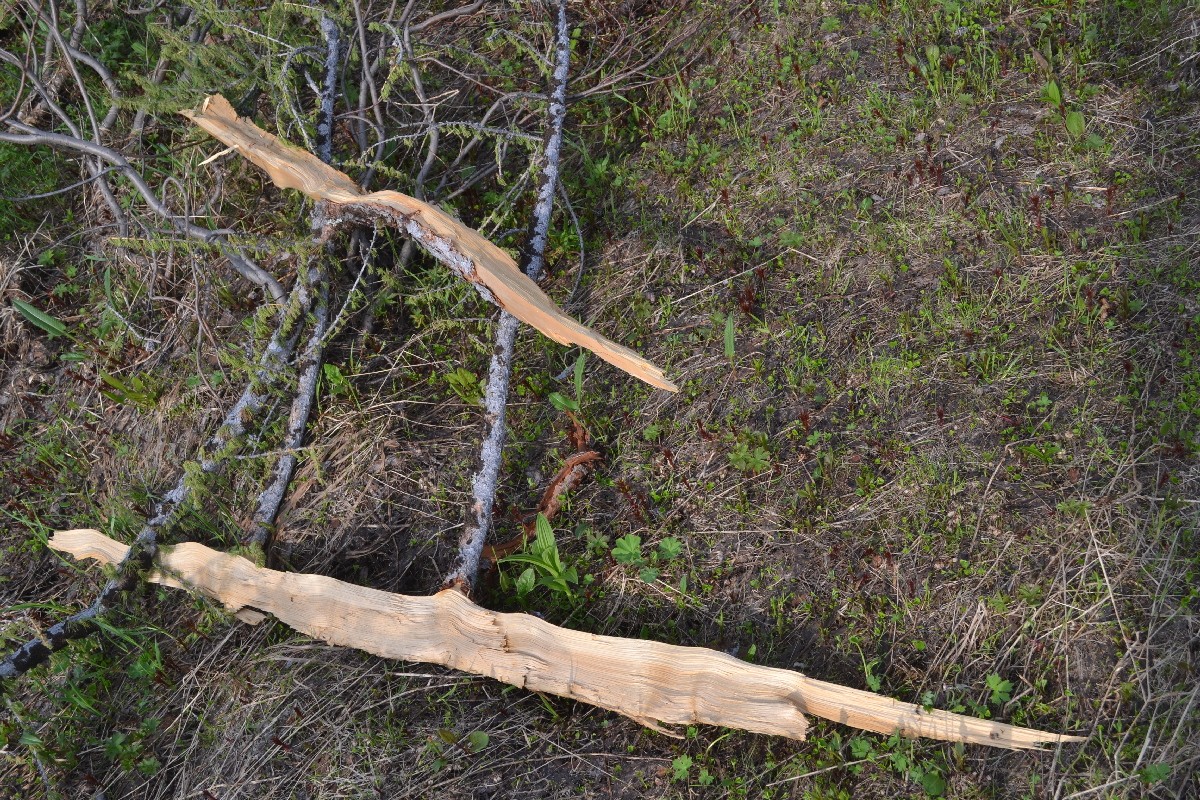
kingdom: Plantae
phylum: Tracheophyta
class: Pinopsida
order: Pinales
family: Pinaceae
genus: Larix
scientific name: Larix sibirica
